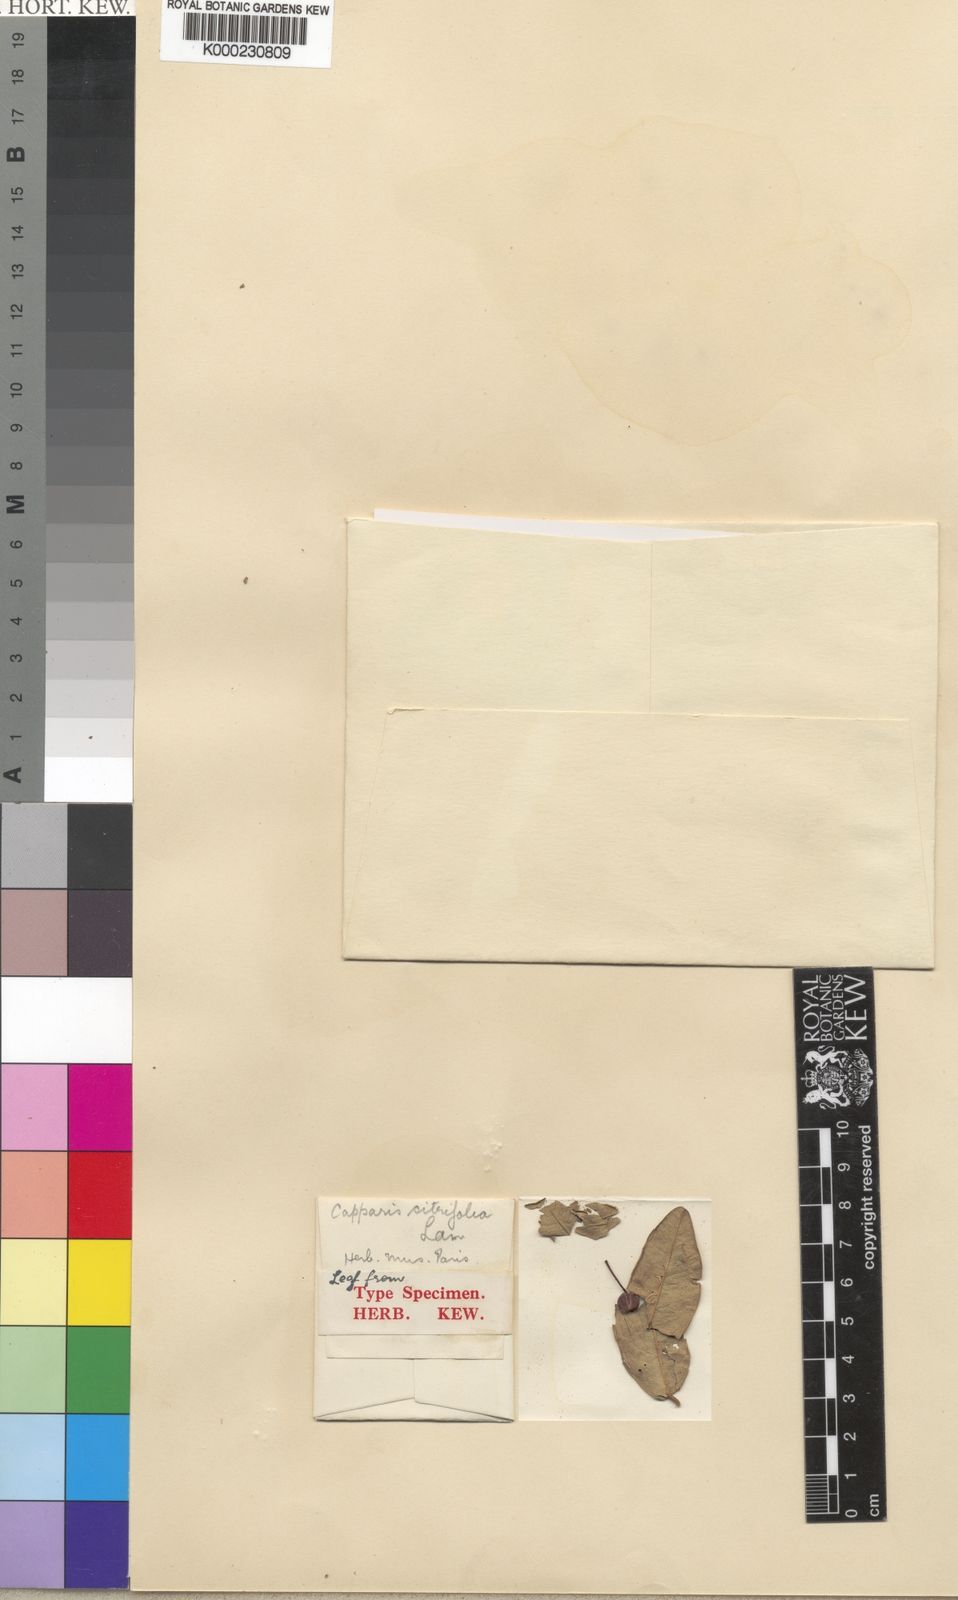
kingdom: Plantae
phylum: Tracheophyta
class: Magnoliopsida
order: Brassicales
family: Capparaceae
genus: Capparis
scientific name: Capparis sepiaria
